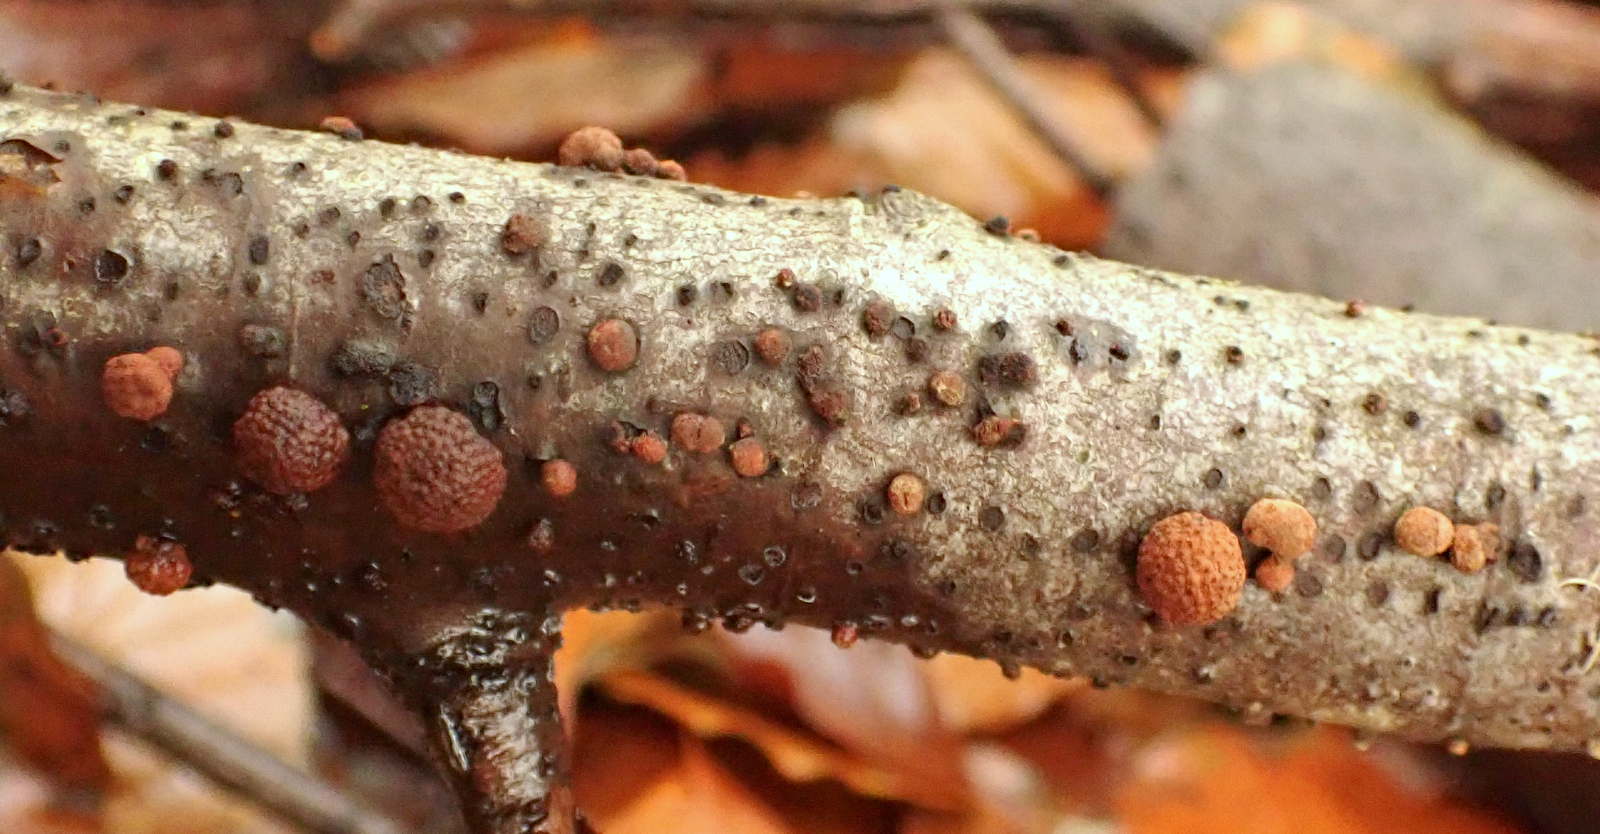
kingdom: Fungi
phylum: Ascomycota
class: Sordariomycetes
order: Xylariales
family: Hypoxylaceae
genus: Hypoxylon
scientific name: Hypoxylon fragiforme
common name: kuljordbær
